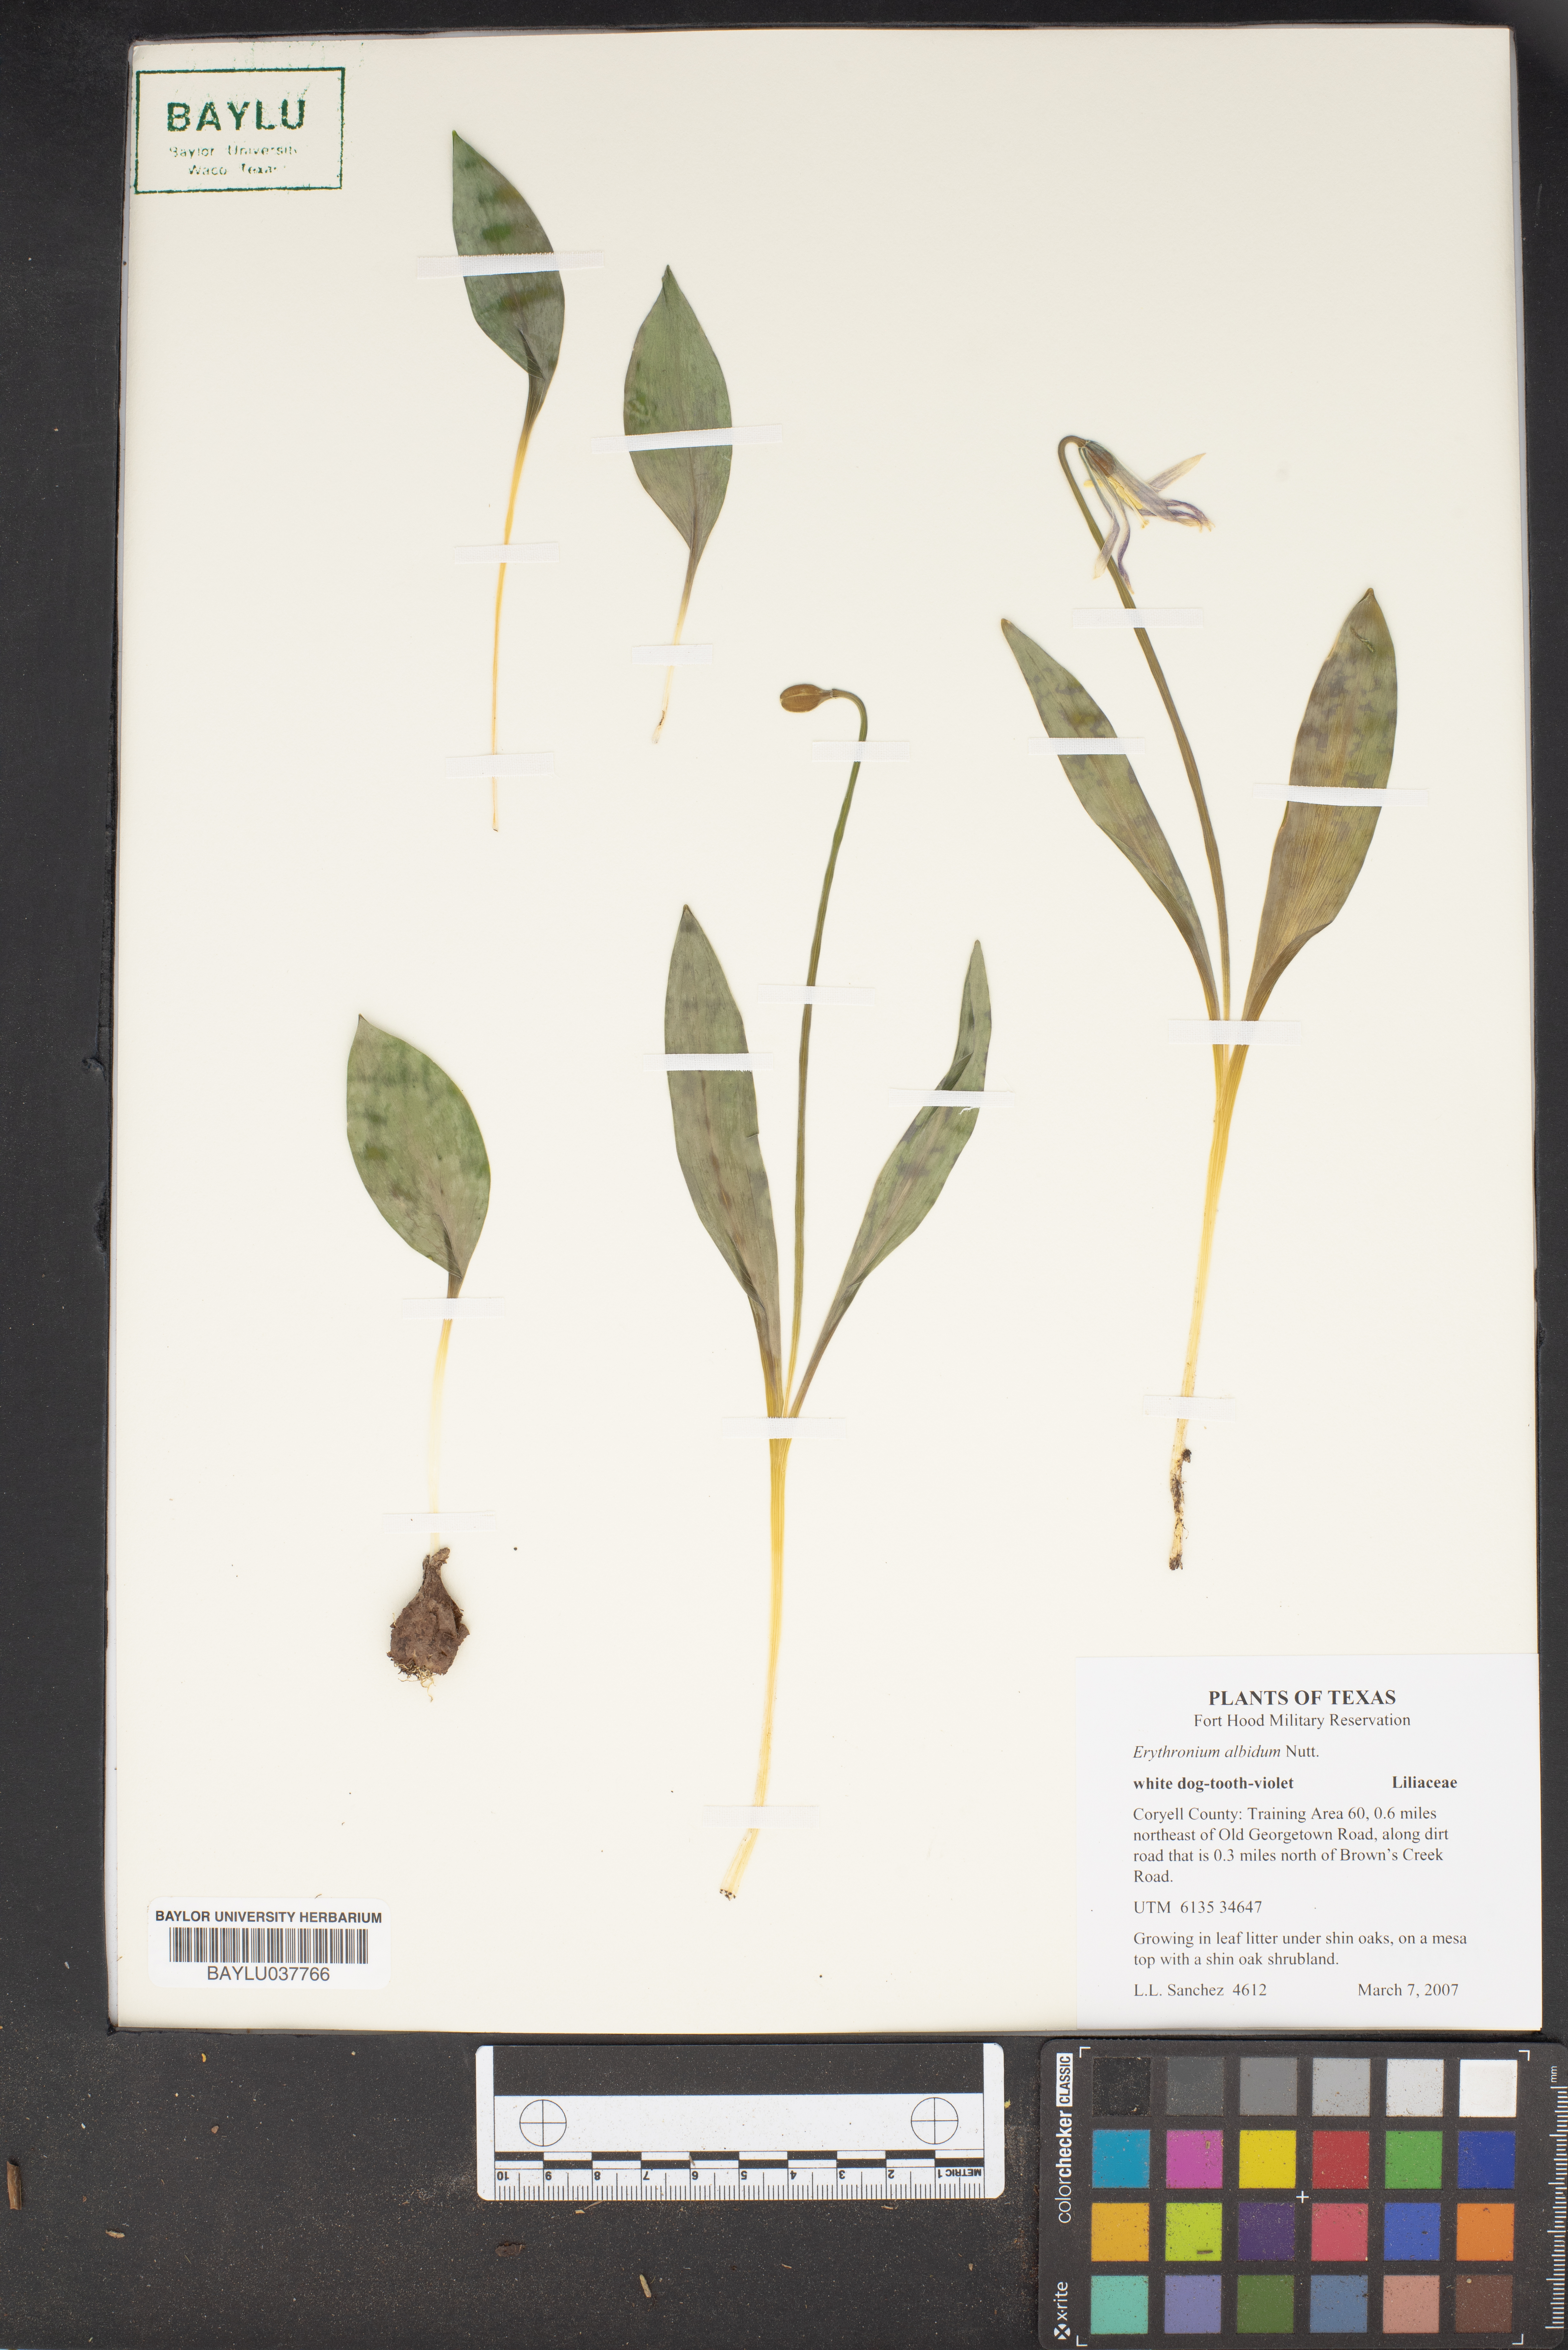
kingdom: Plantae
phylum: Tracheophyta
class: Liliopsida
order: Liliales
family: Liliaceae
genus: Erythronium
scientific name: Erythronium albidum
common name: White trout-lily
